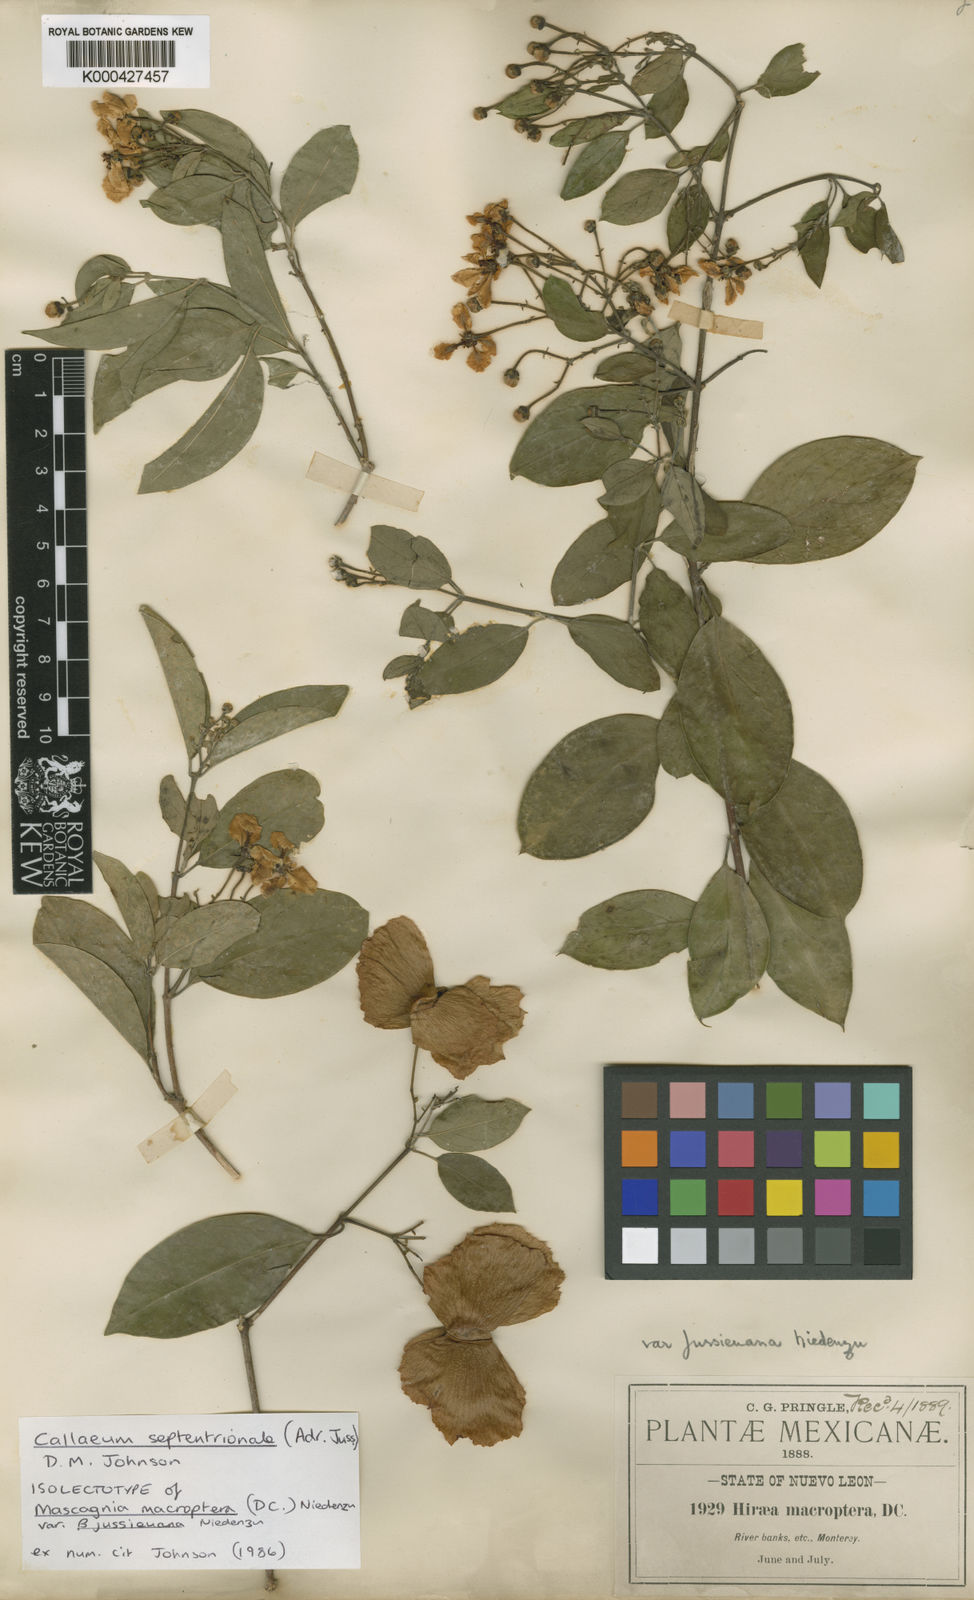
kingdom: Plantae
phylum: Tracheophyta
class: Magnoliopsida
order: Malpighiales
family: Malpighiaceae
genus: Callaeum
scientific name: Callaeum septentrionale
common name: Naranjillo
